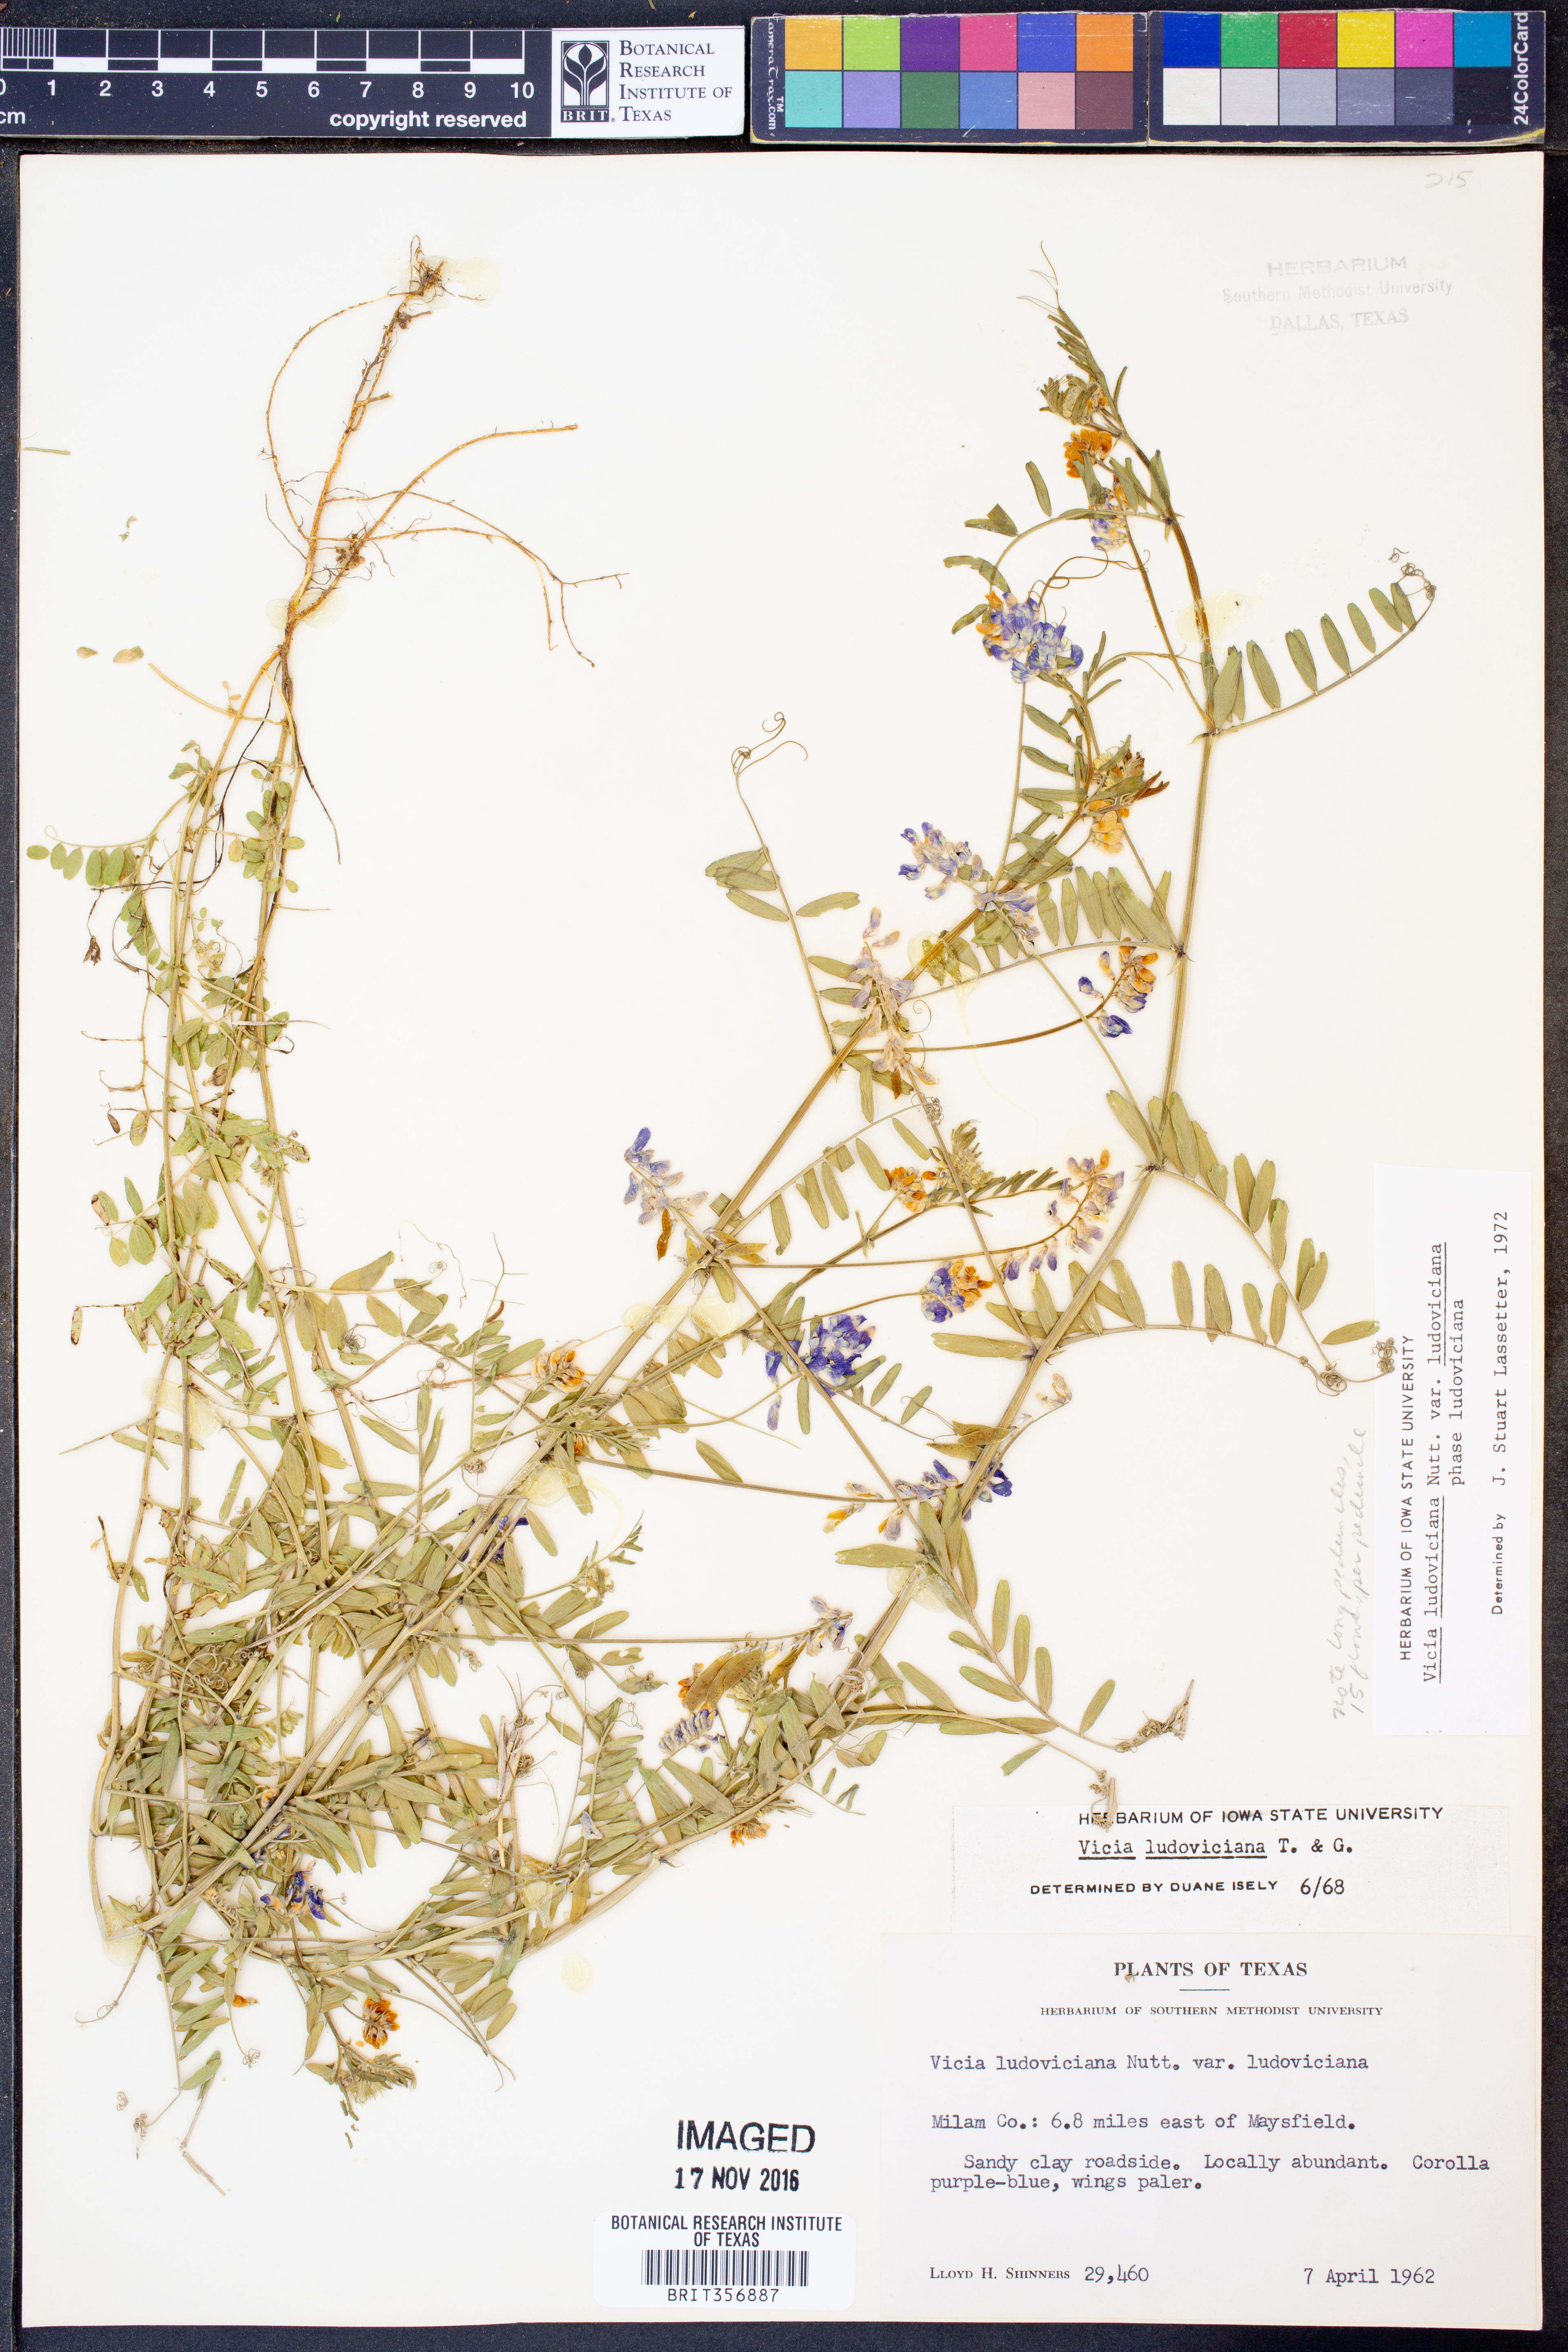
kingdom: Plantae
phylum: Tracheophyta
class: Magnoliopsida
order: Fabales
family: Fabaceae
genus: Vicia
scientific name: Vicia ludoviciana
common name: Louisiana vetch
